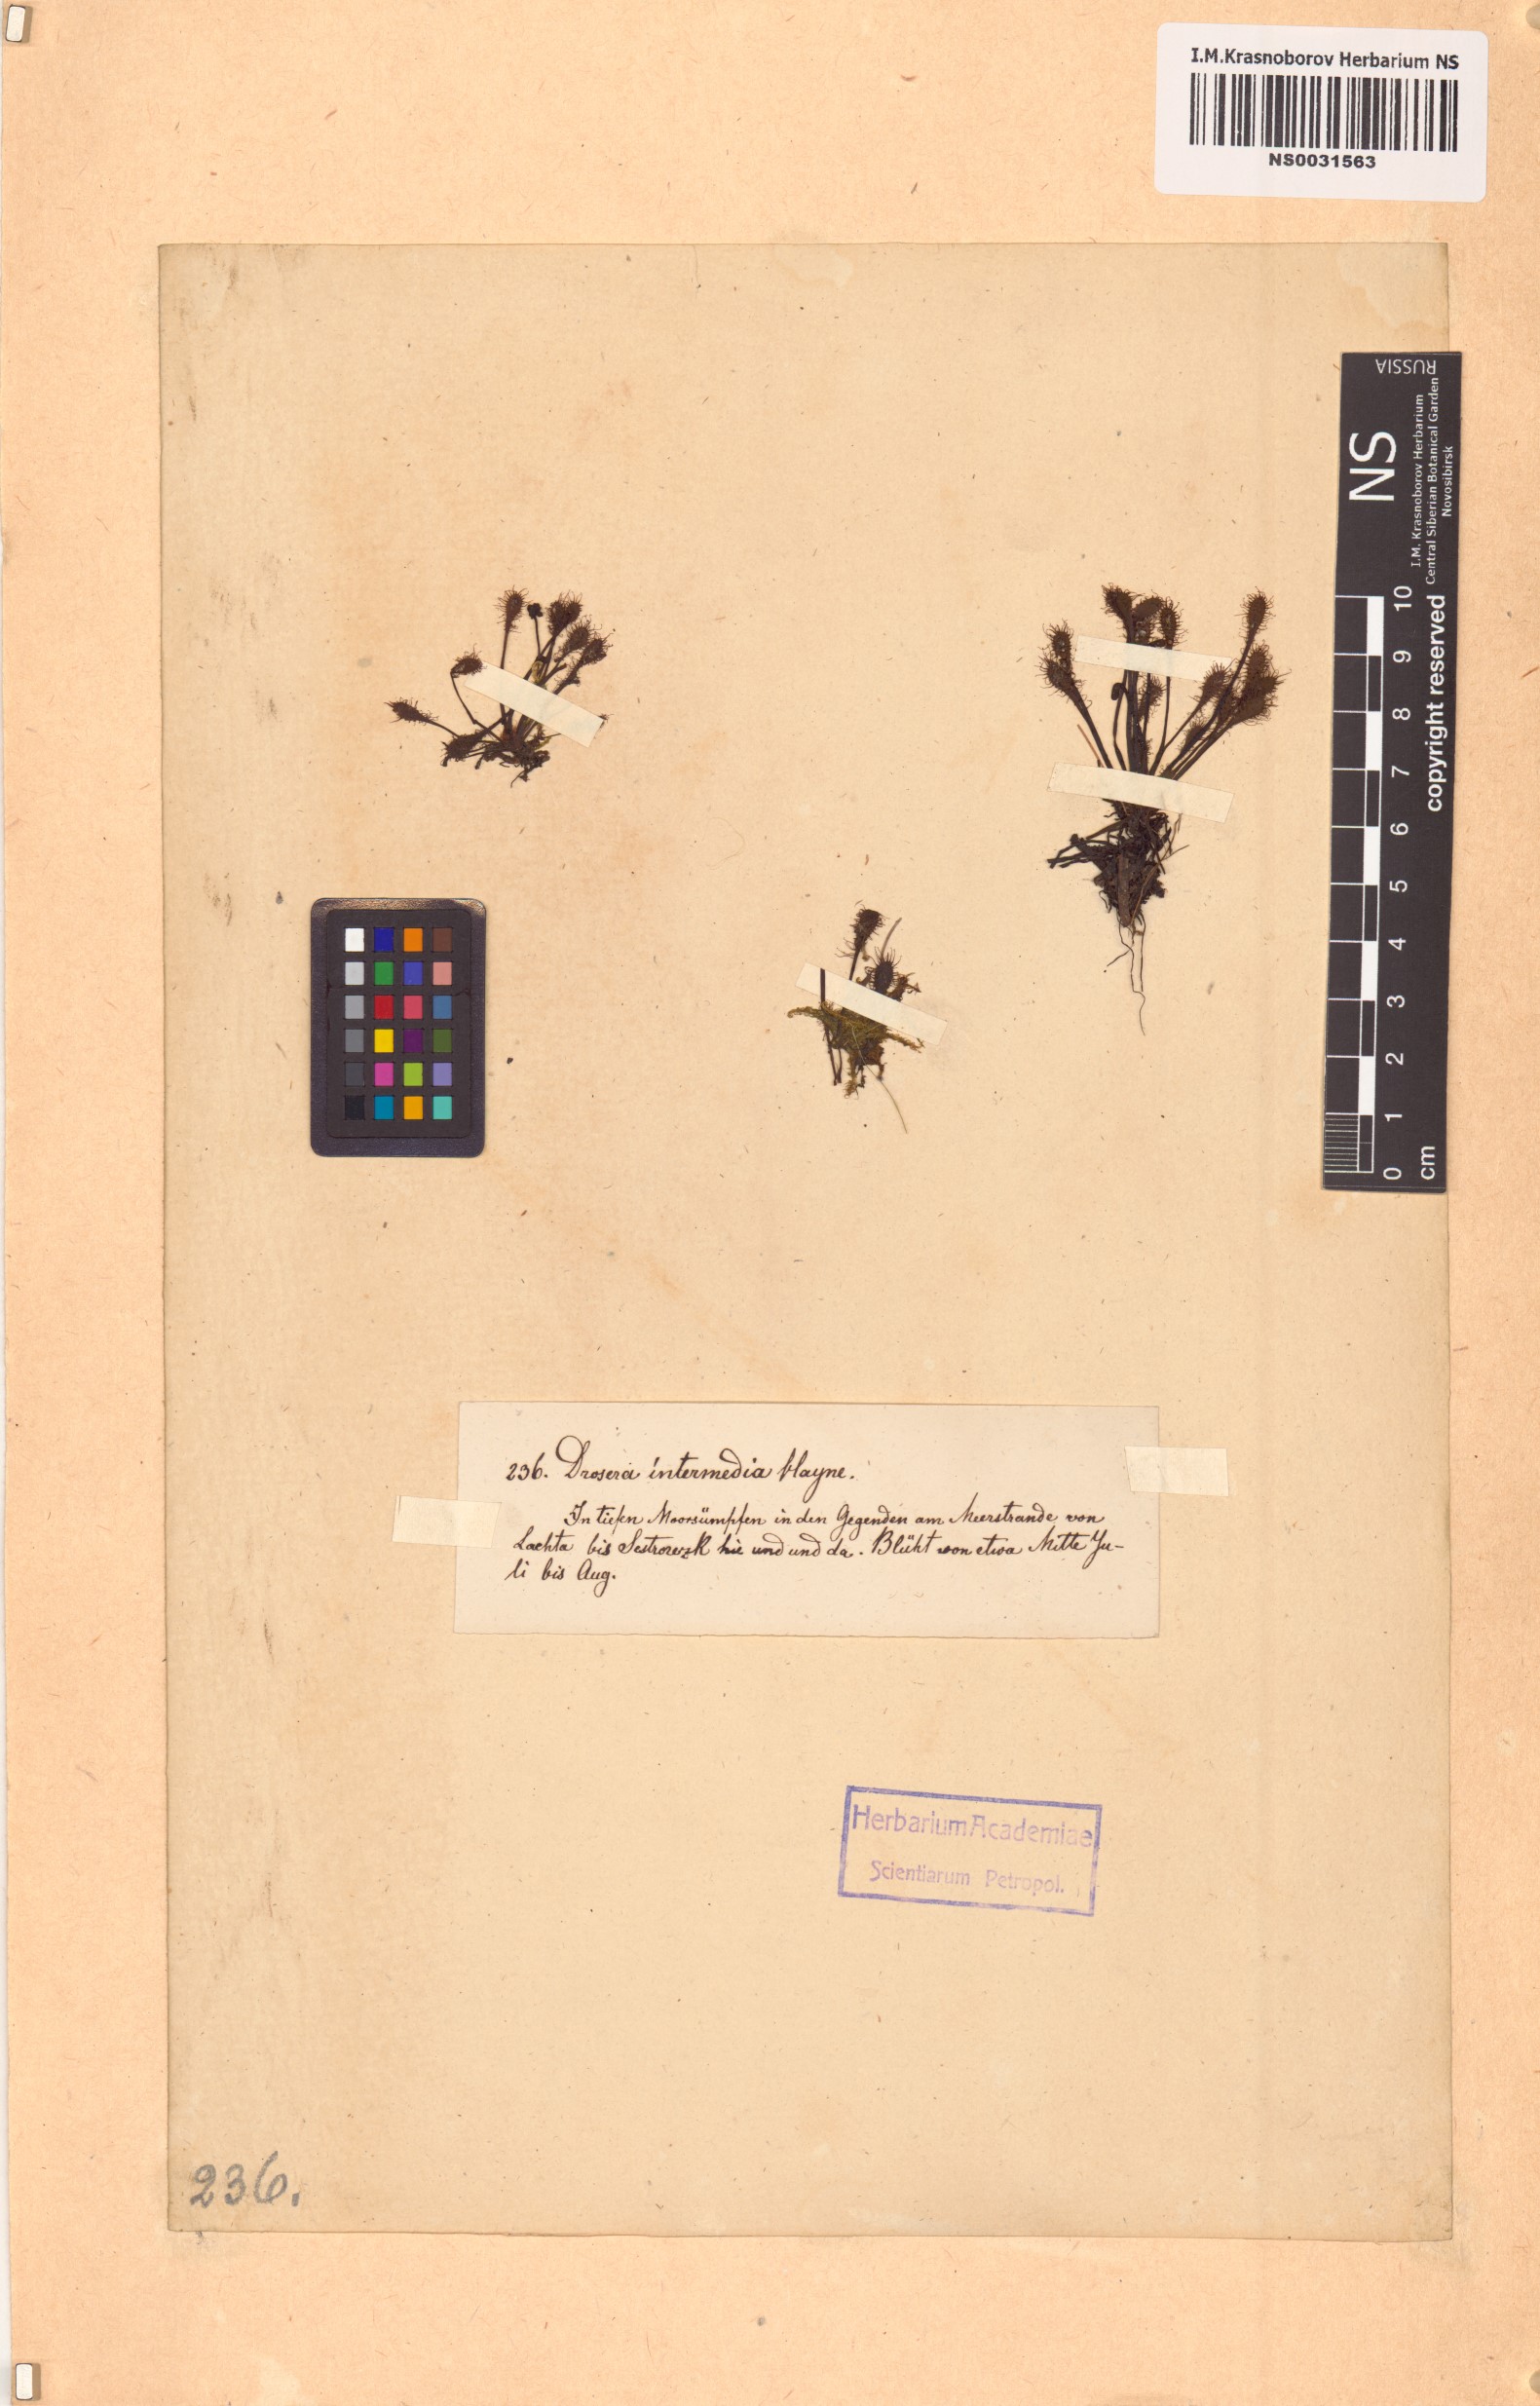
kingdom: Plantae
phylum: Tracheophyta
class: Magnoliopsida
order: Caryophyllales
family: Droseraceae
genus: Drosera
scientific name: Drosera intermedia
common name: Oblong-leaved sundew
